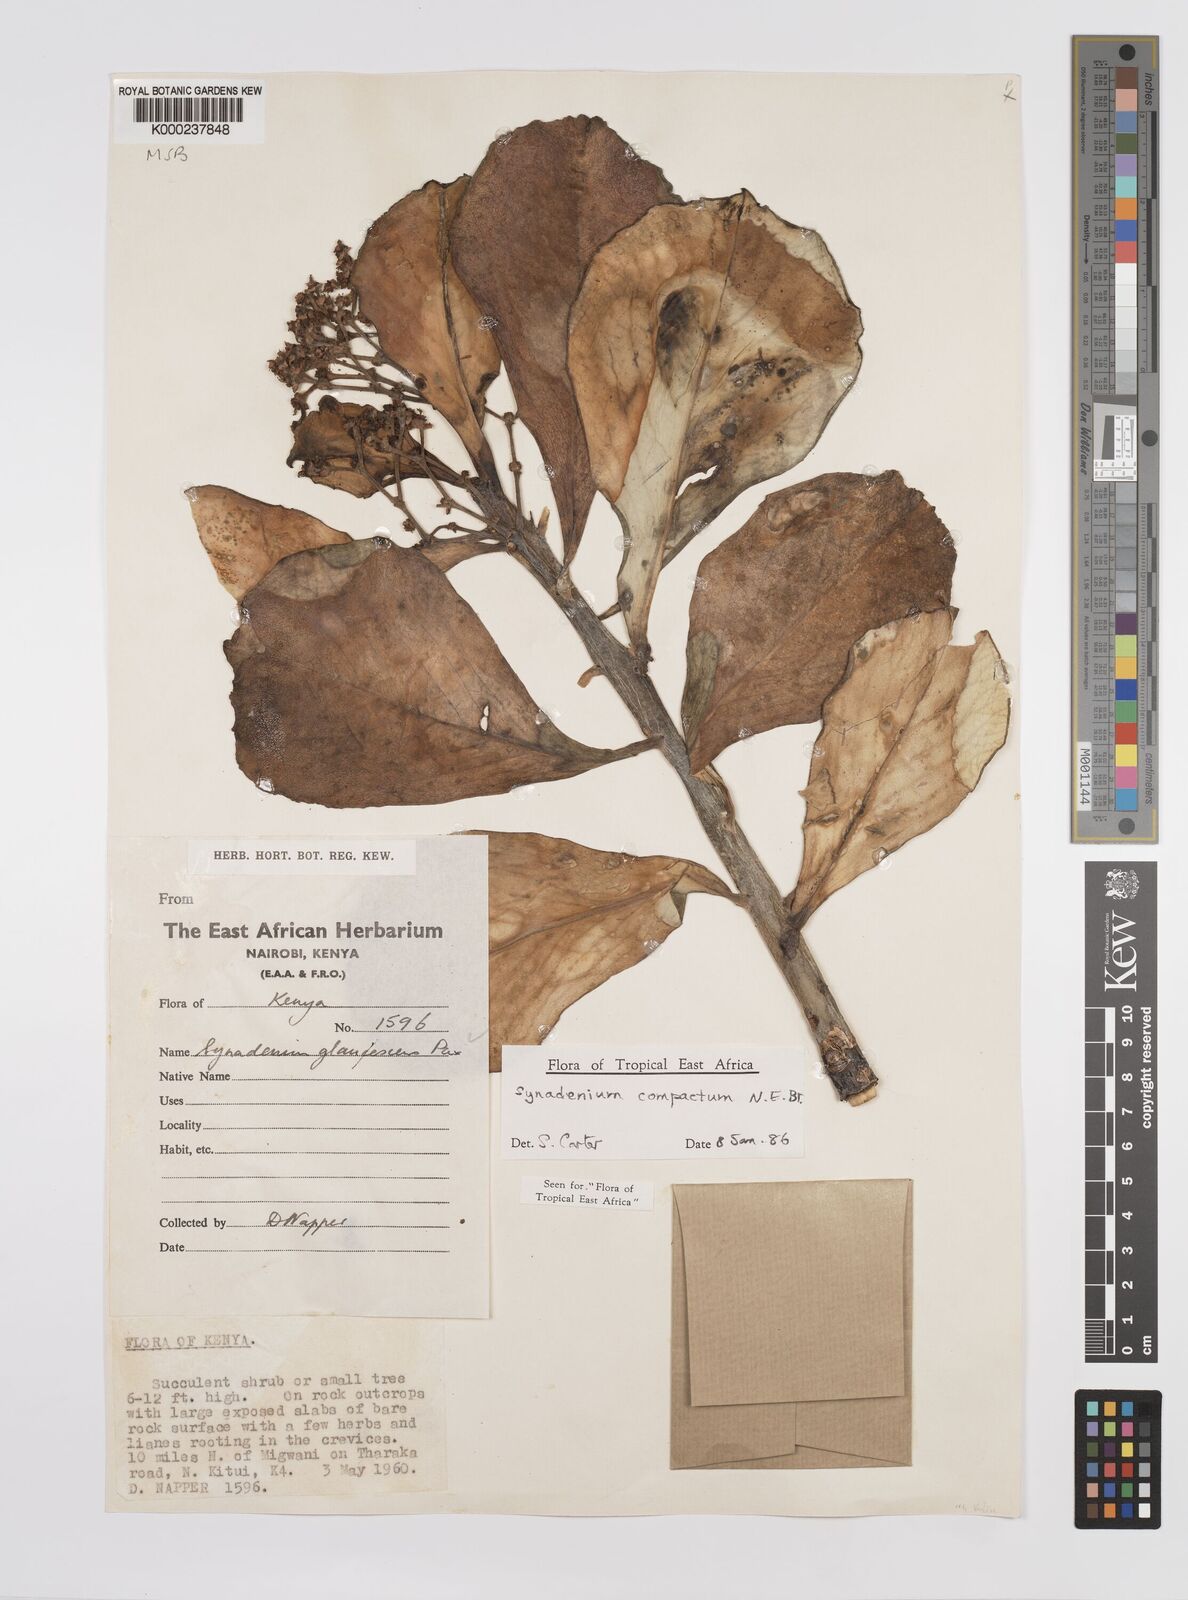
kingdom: Plantae
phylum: Tracheophyta
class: Magnoliopsida
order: Malpighiales
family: Euphorbiaceae
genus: Euphorbia
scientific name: Euphorbia bicompacta
